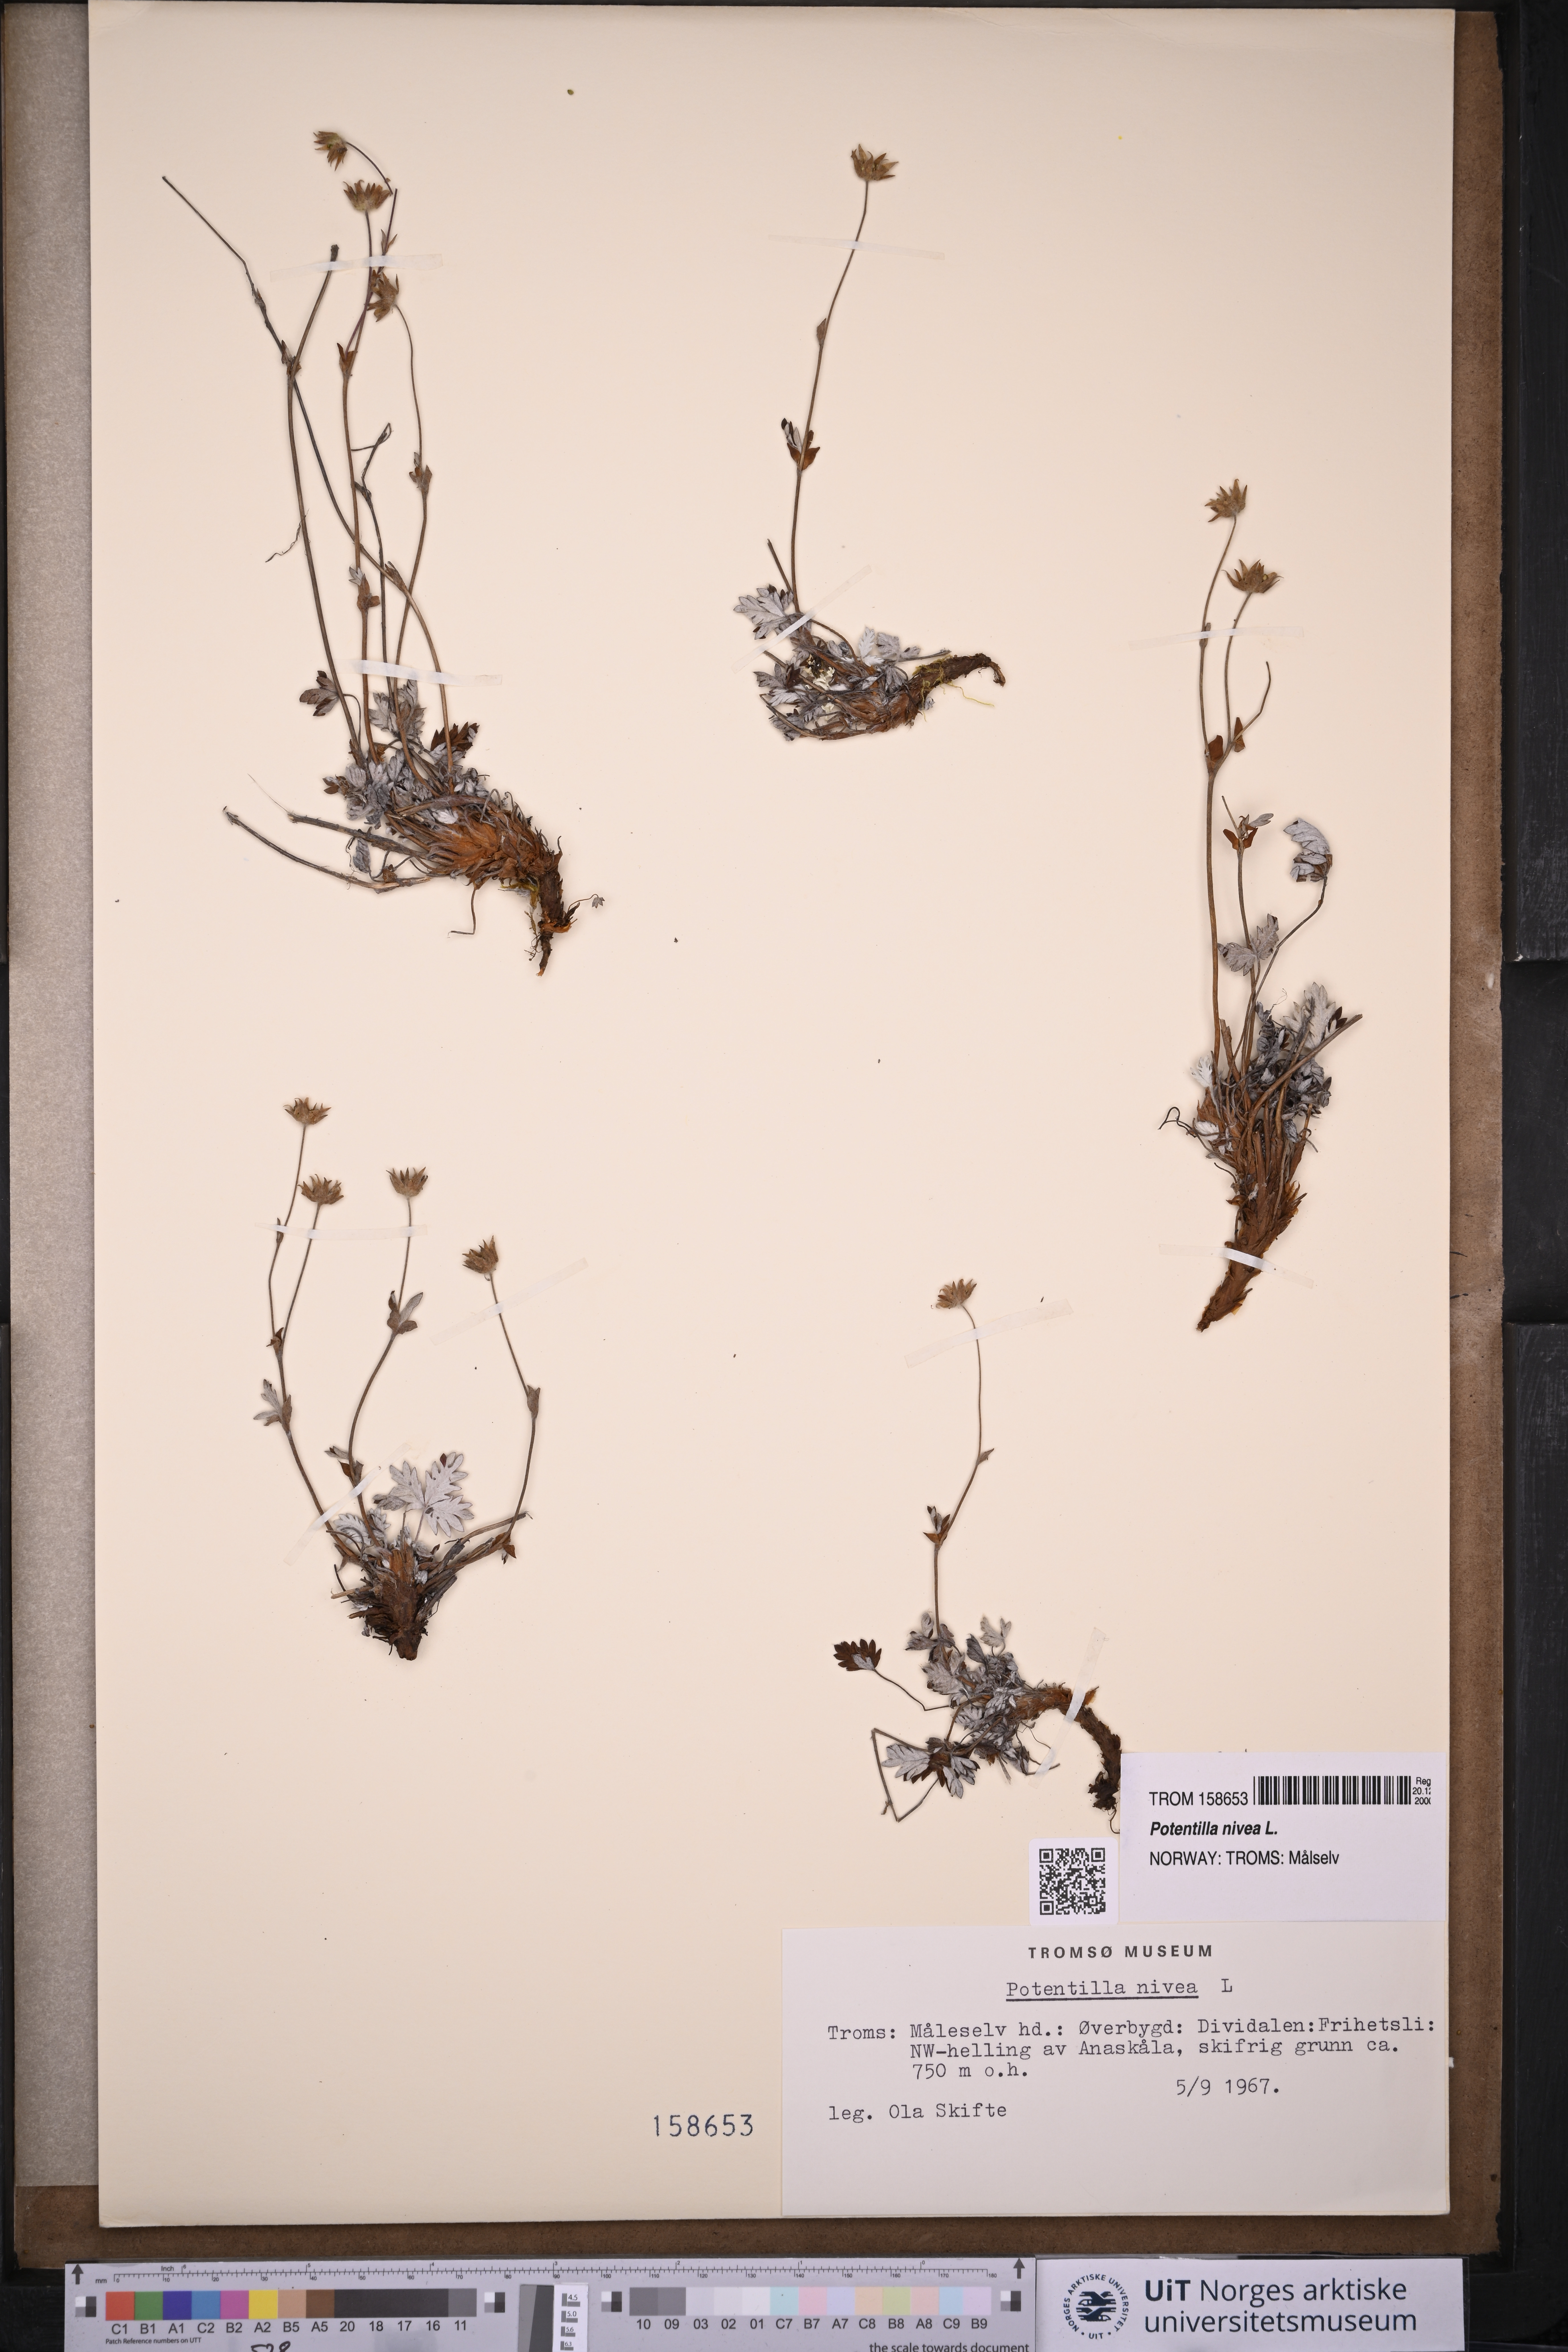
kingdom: Plantae
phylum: Tracheophyta
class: Magnoliopsida
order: Rosales
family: Rosaceae
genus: Potentilla
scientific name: Potentilla arenosa
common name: Bluff cinquefoil
